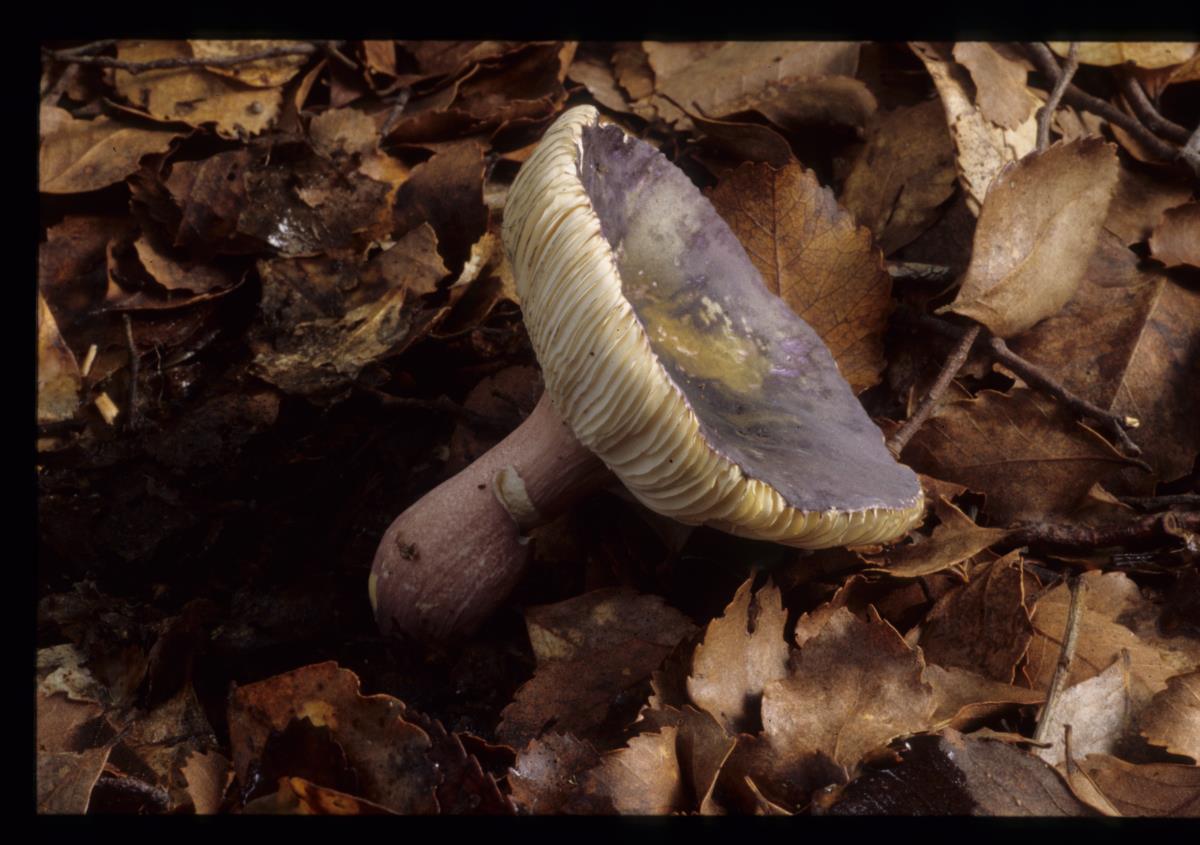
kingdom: Fungi
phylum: Basidiomycota
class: Agaricomycetes
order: Russulales
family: Russulaceae
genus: Russula
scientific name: Russula
